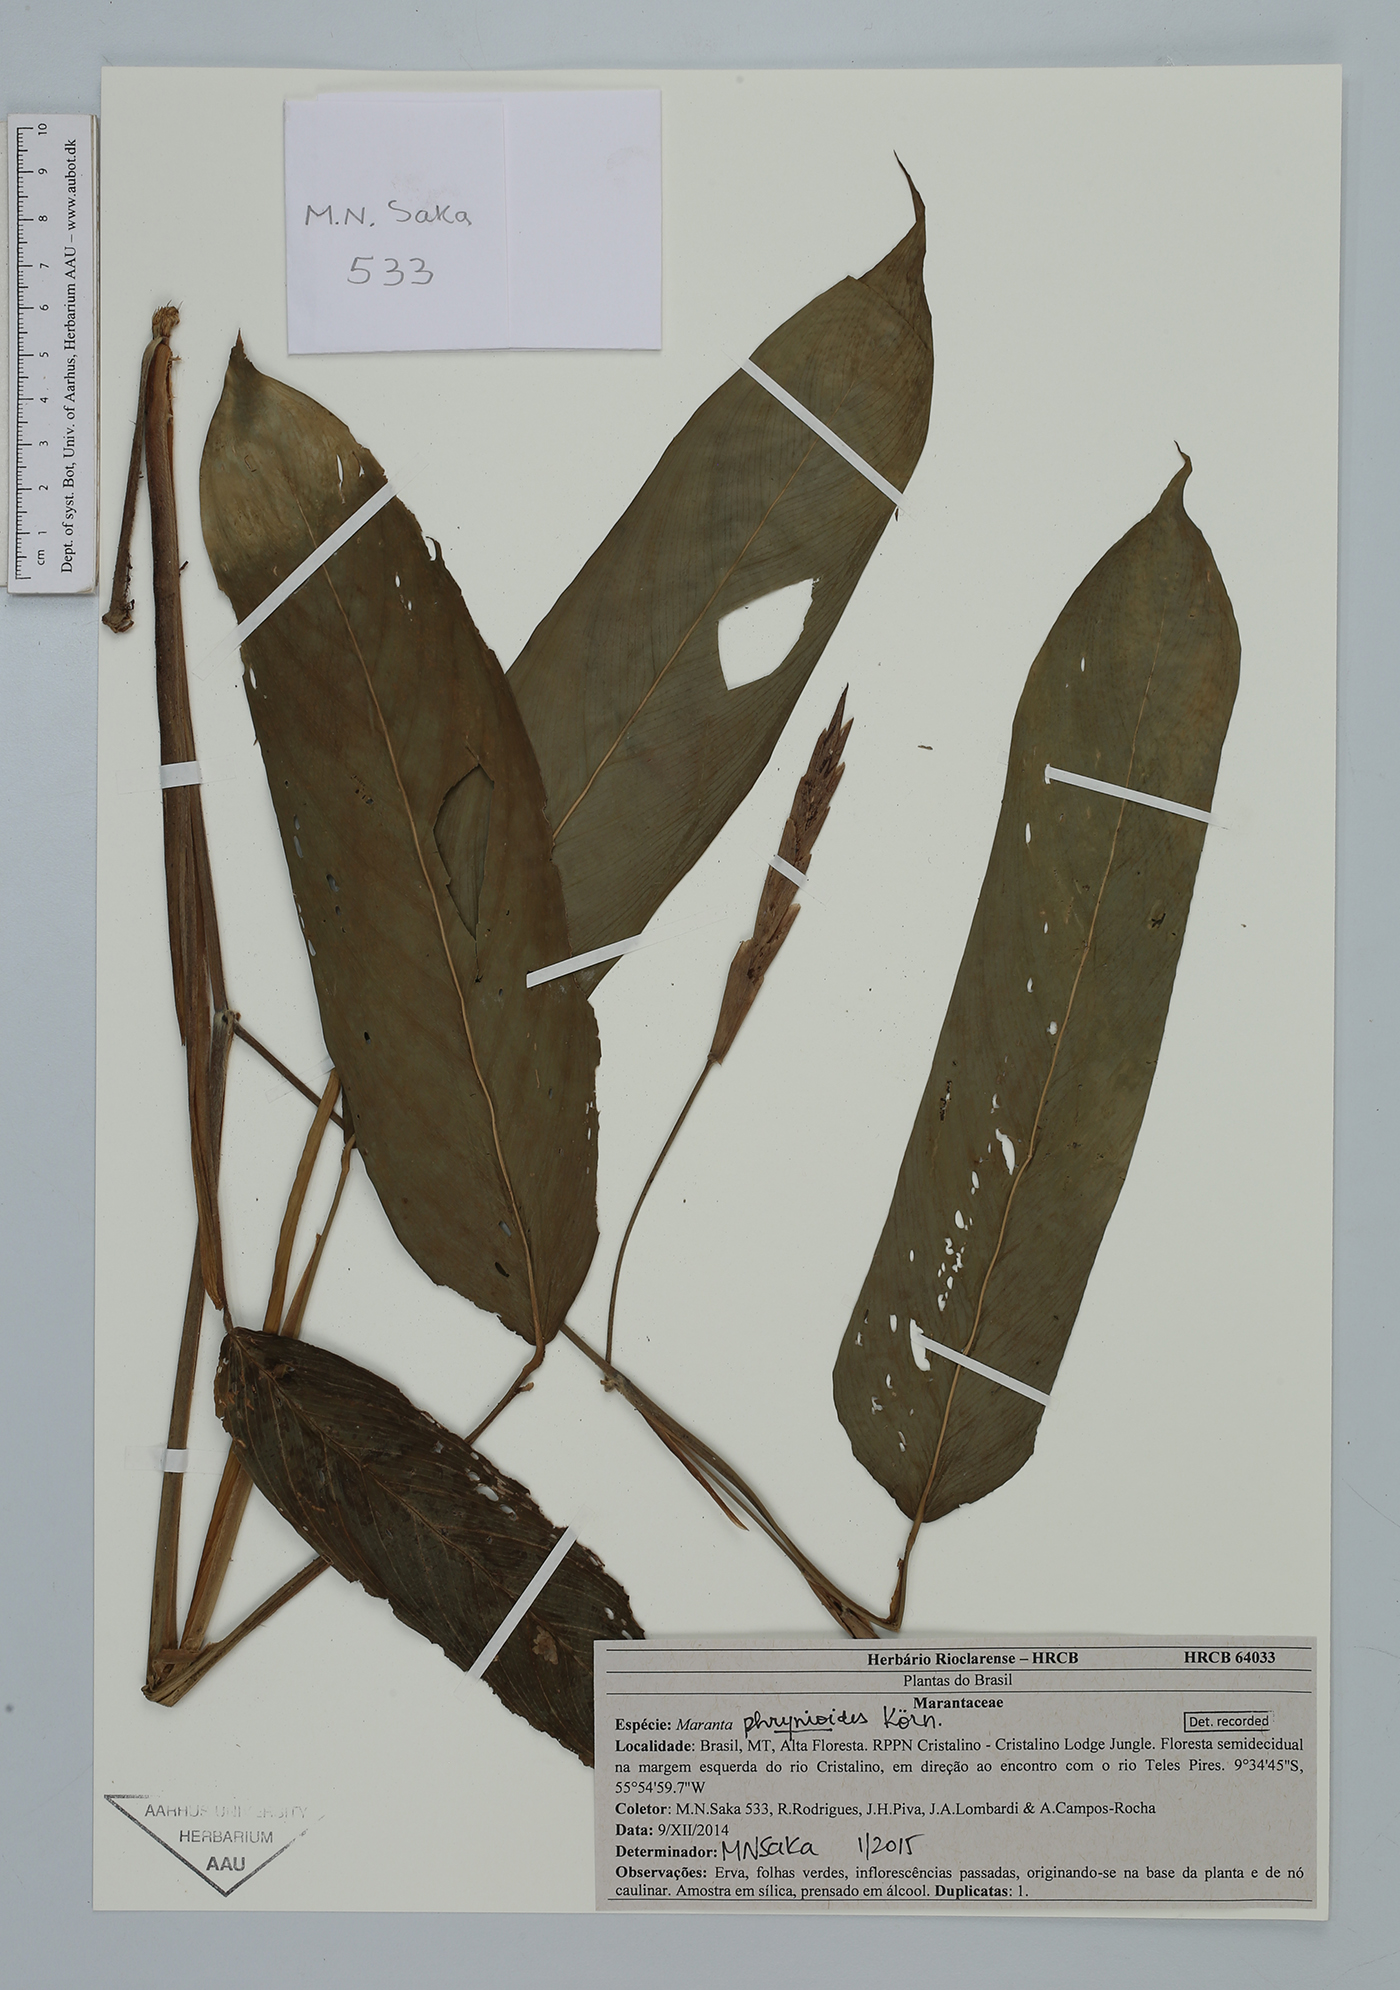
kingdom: Plantae
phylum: Tracheophyta
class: Liliopsida
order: Zingiberales
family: Marantaceae
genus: Maranta
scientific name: Maranta phrynioides
